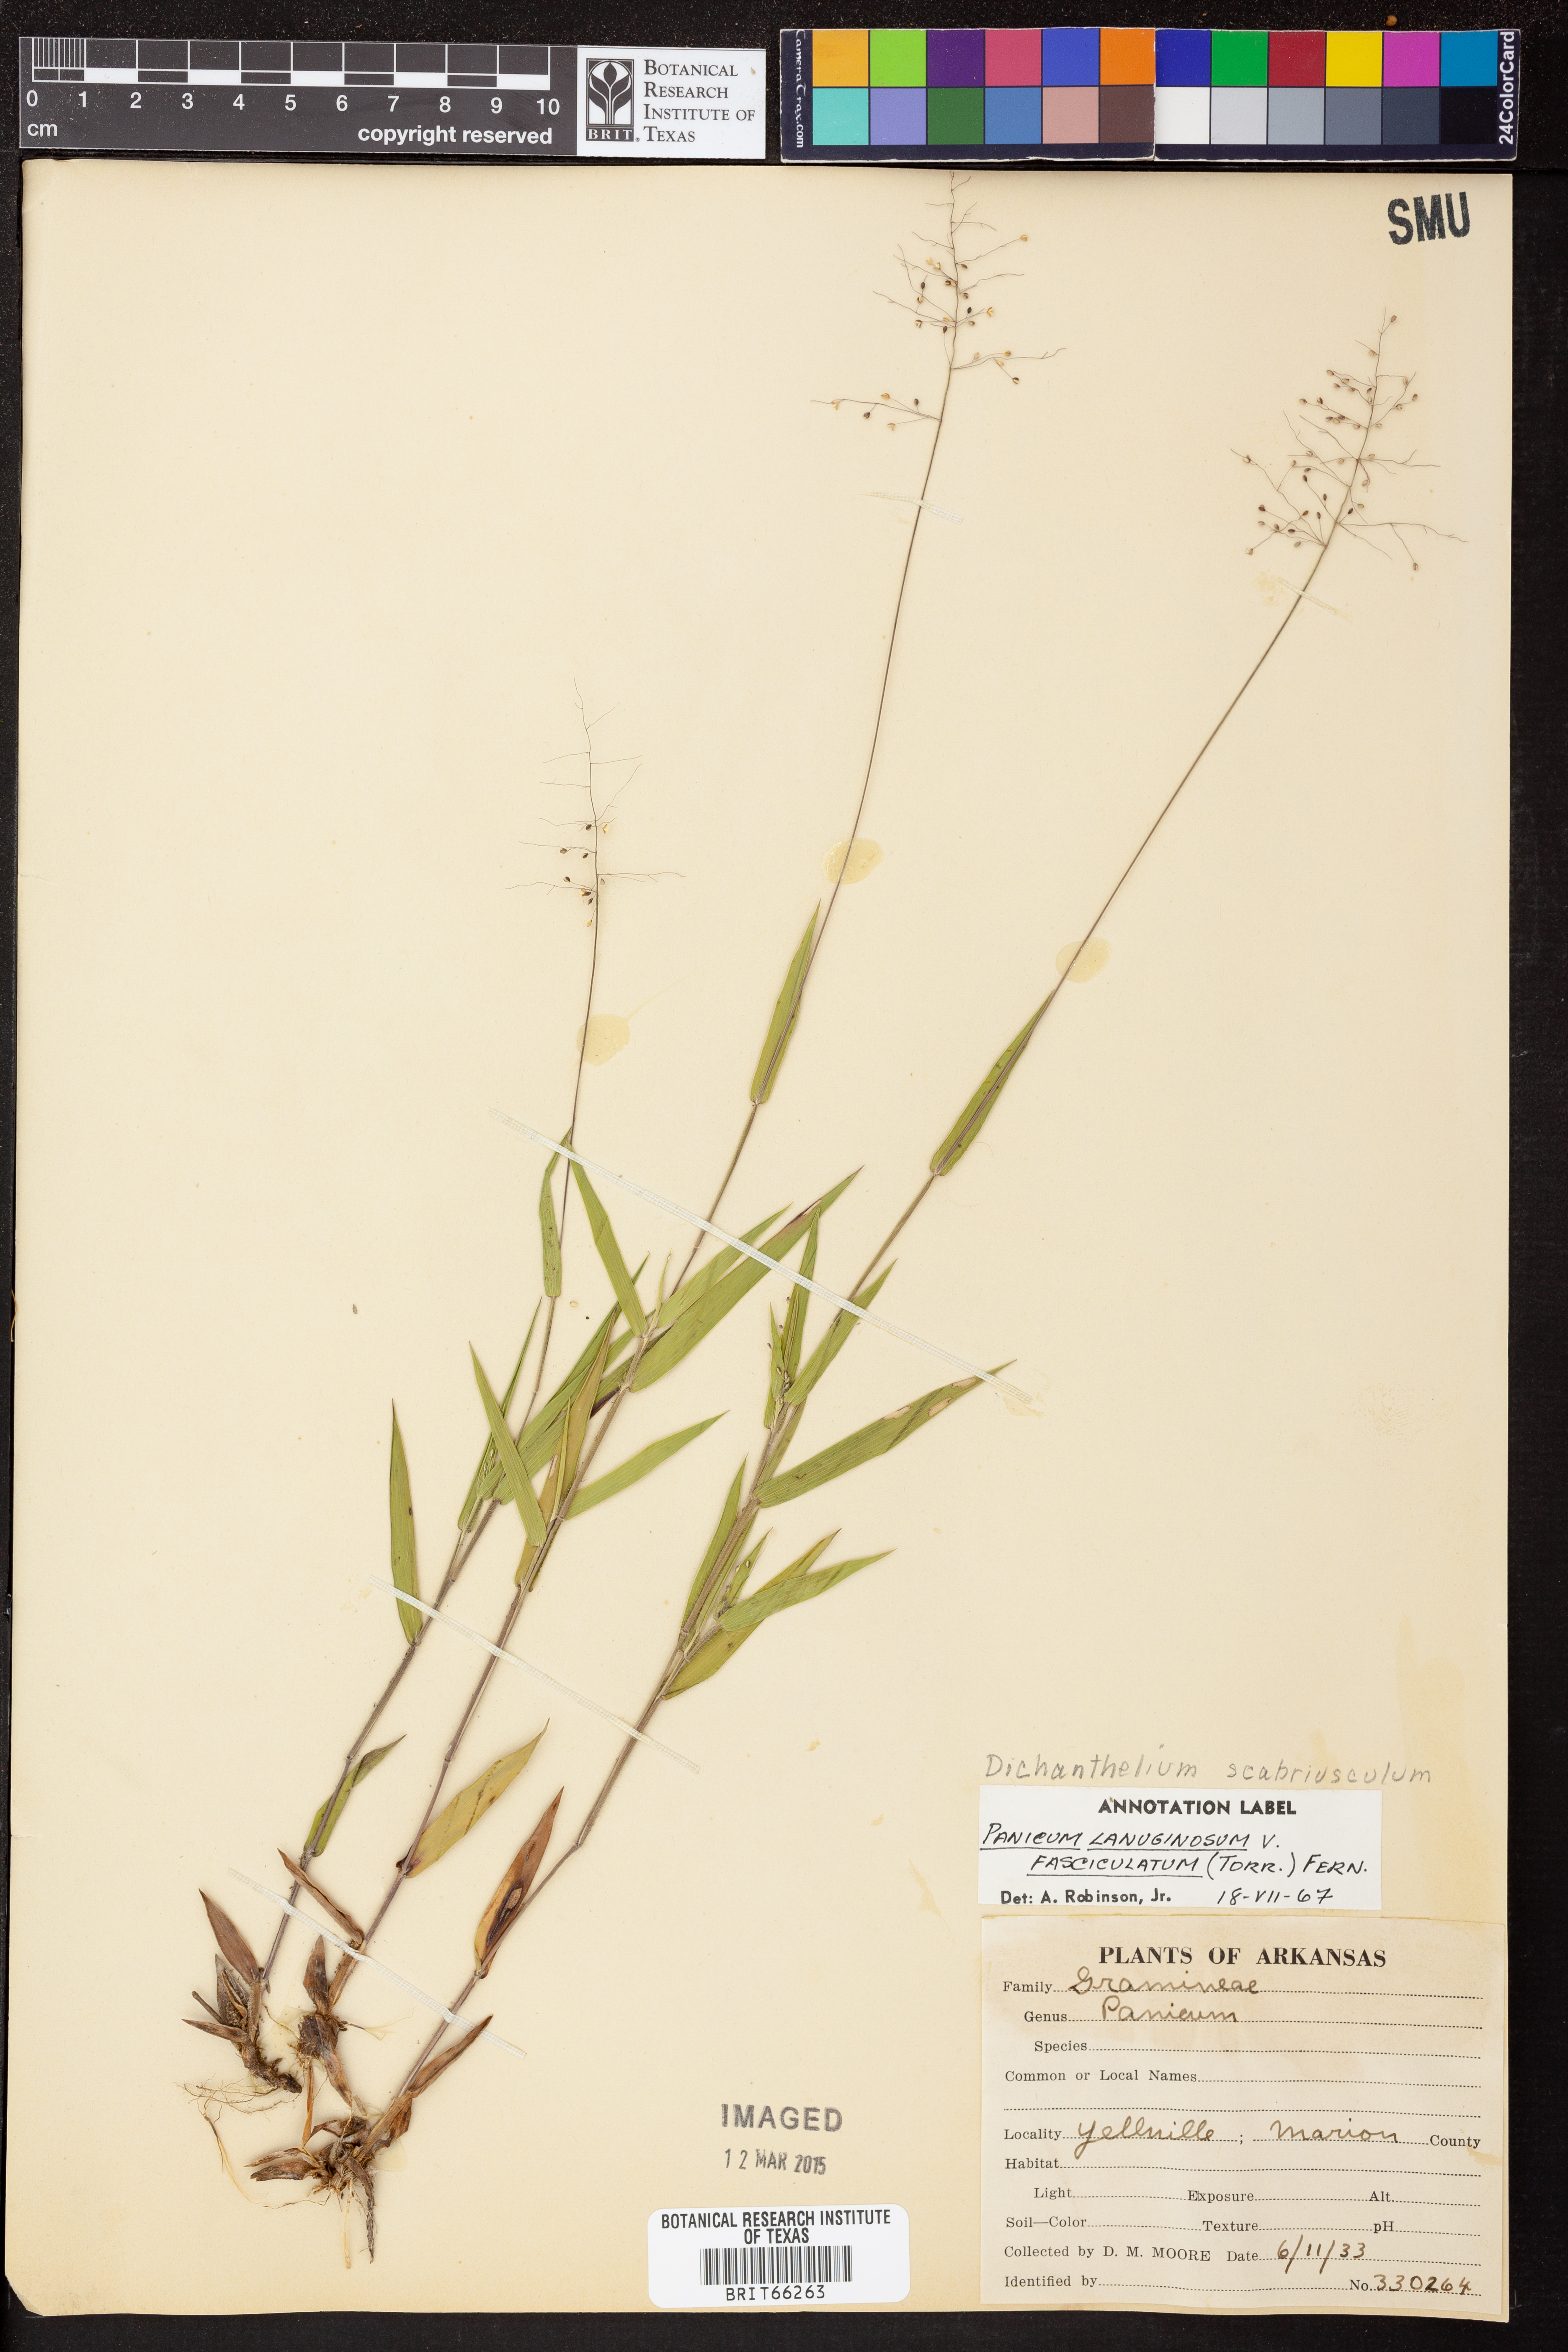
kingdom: Plantae
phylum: Tracheophyta
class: Liliopsida
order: Poales
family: Poaceae
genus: Dichanthelium
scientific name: Dichanthelium lanuginosum
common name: Woolly panicgrass
